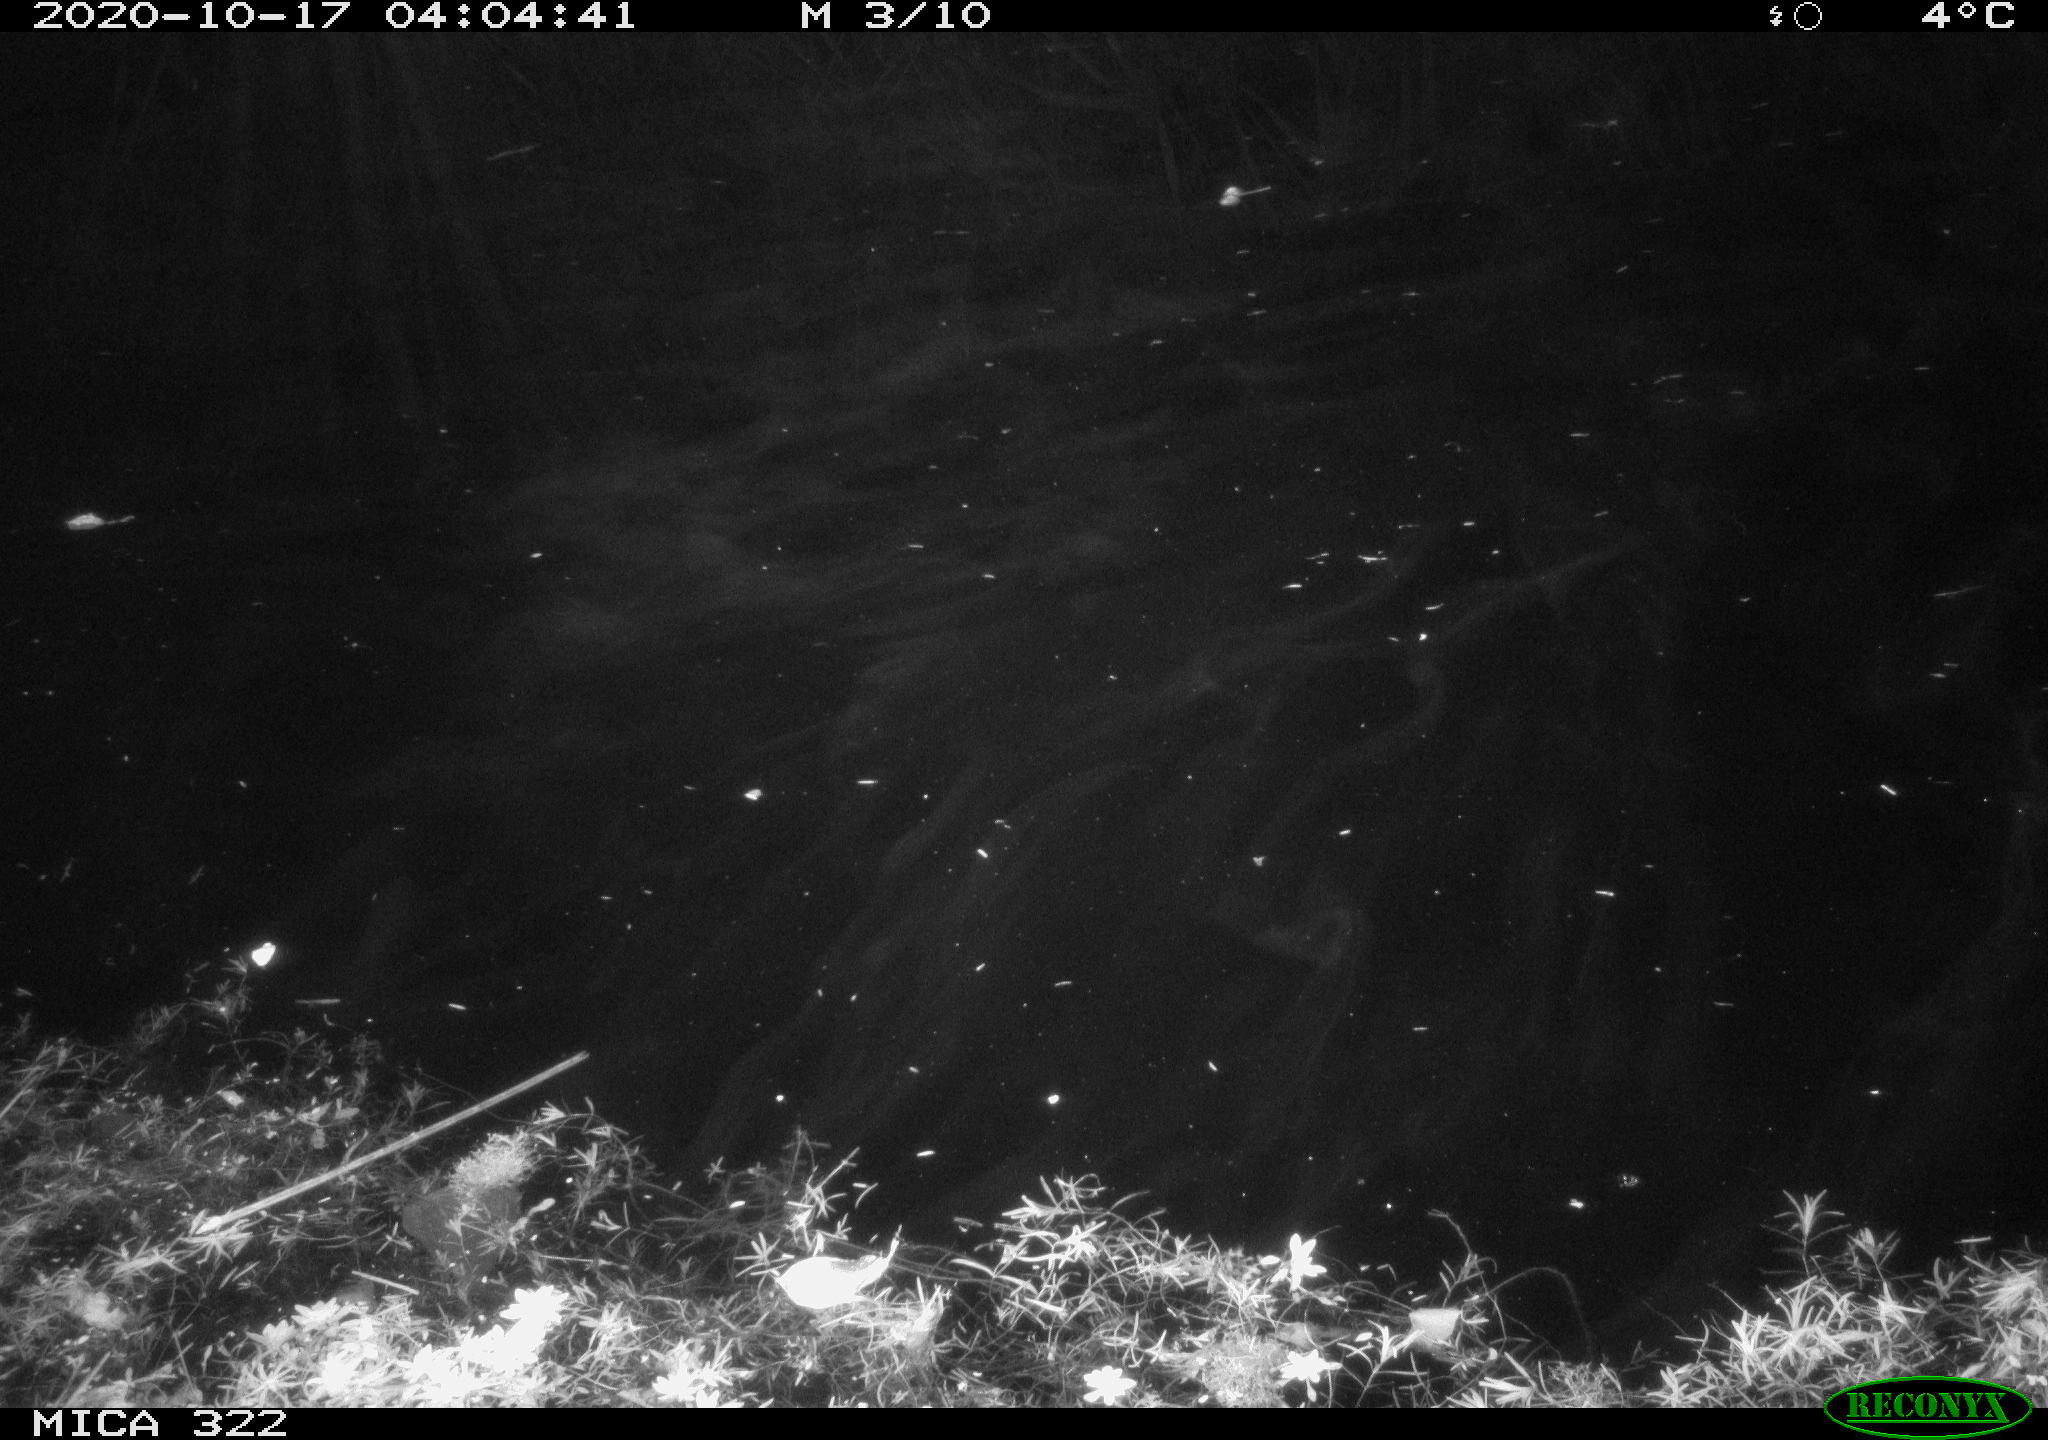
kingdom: Animalia
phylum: Chordata
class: Mammalia
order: Rodentia
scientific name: Rodentia
